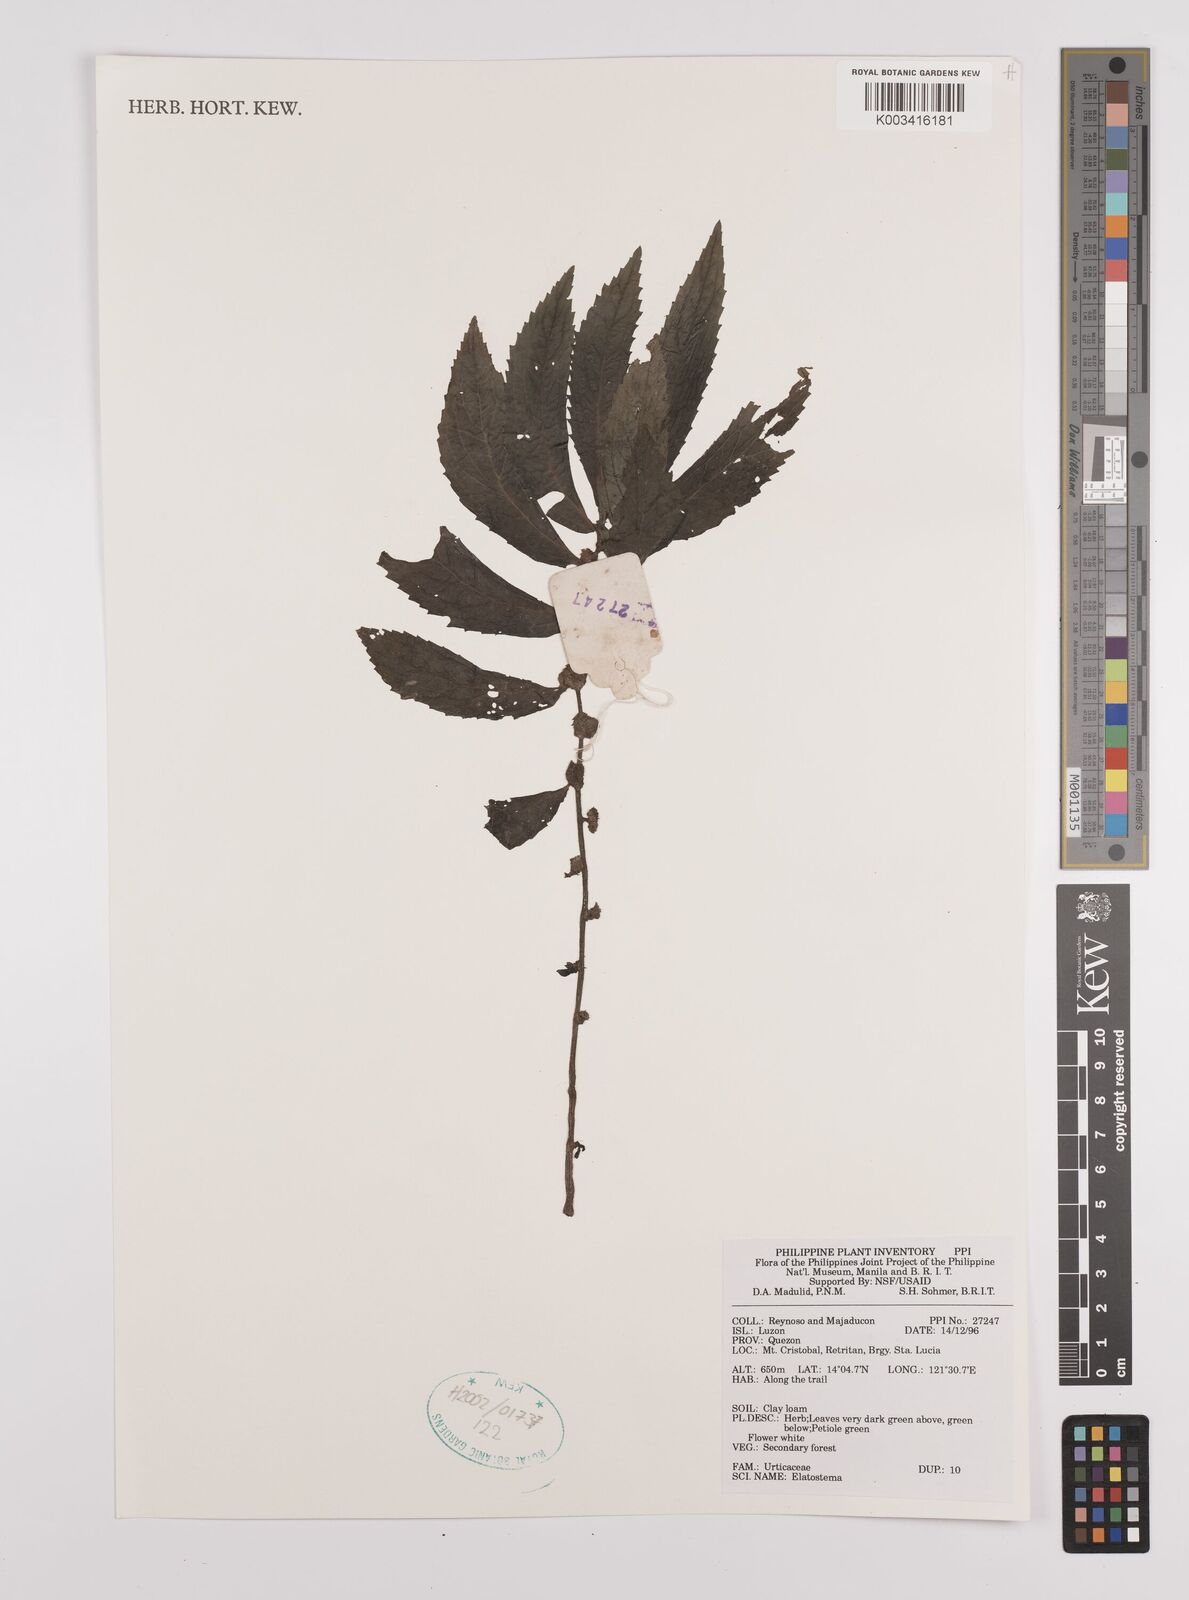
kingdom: Plantae
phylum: Tracheophyta
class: Magnoliopsida
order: Rosales
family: Urticaceae
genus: Elatostema
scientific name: Elatostema
